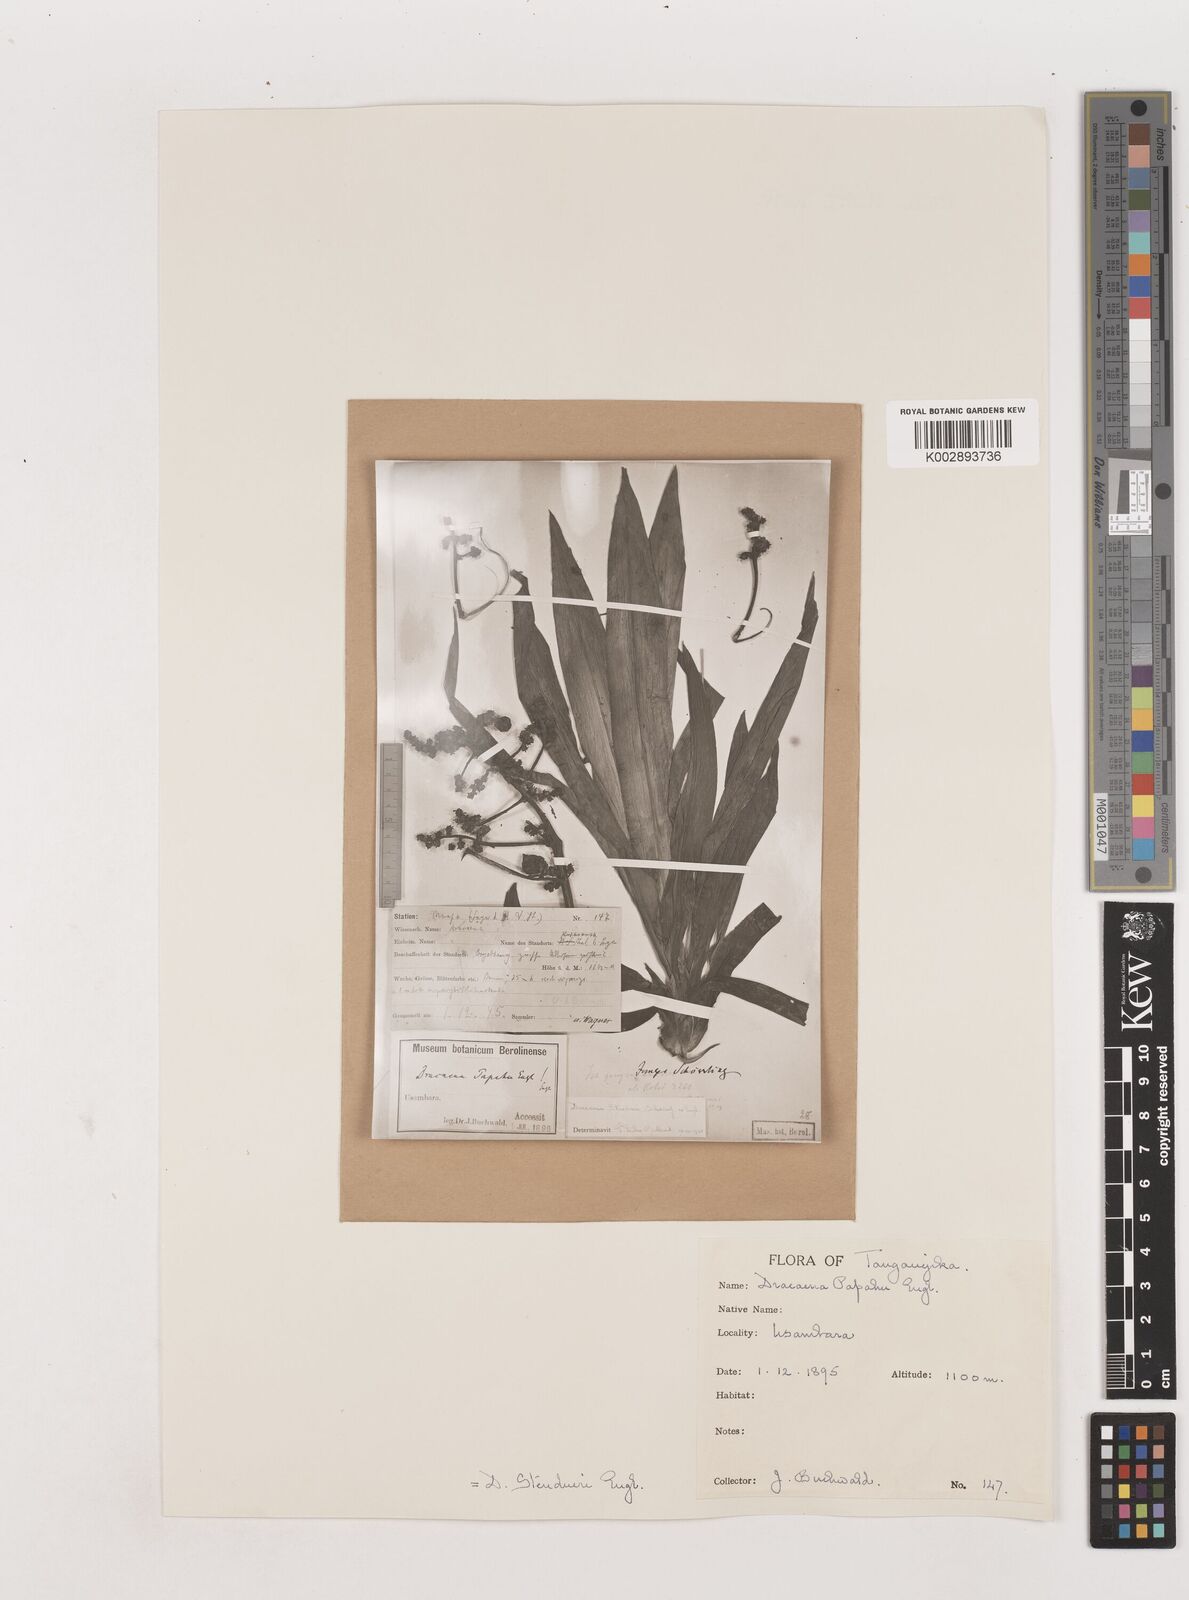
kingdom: Plantae
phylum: Tracheophyta
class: Liliopsida
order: Asparagales
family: Asparagaceae
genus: Dracaena
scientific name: Dracaena steudneri
